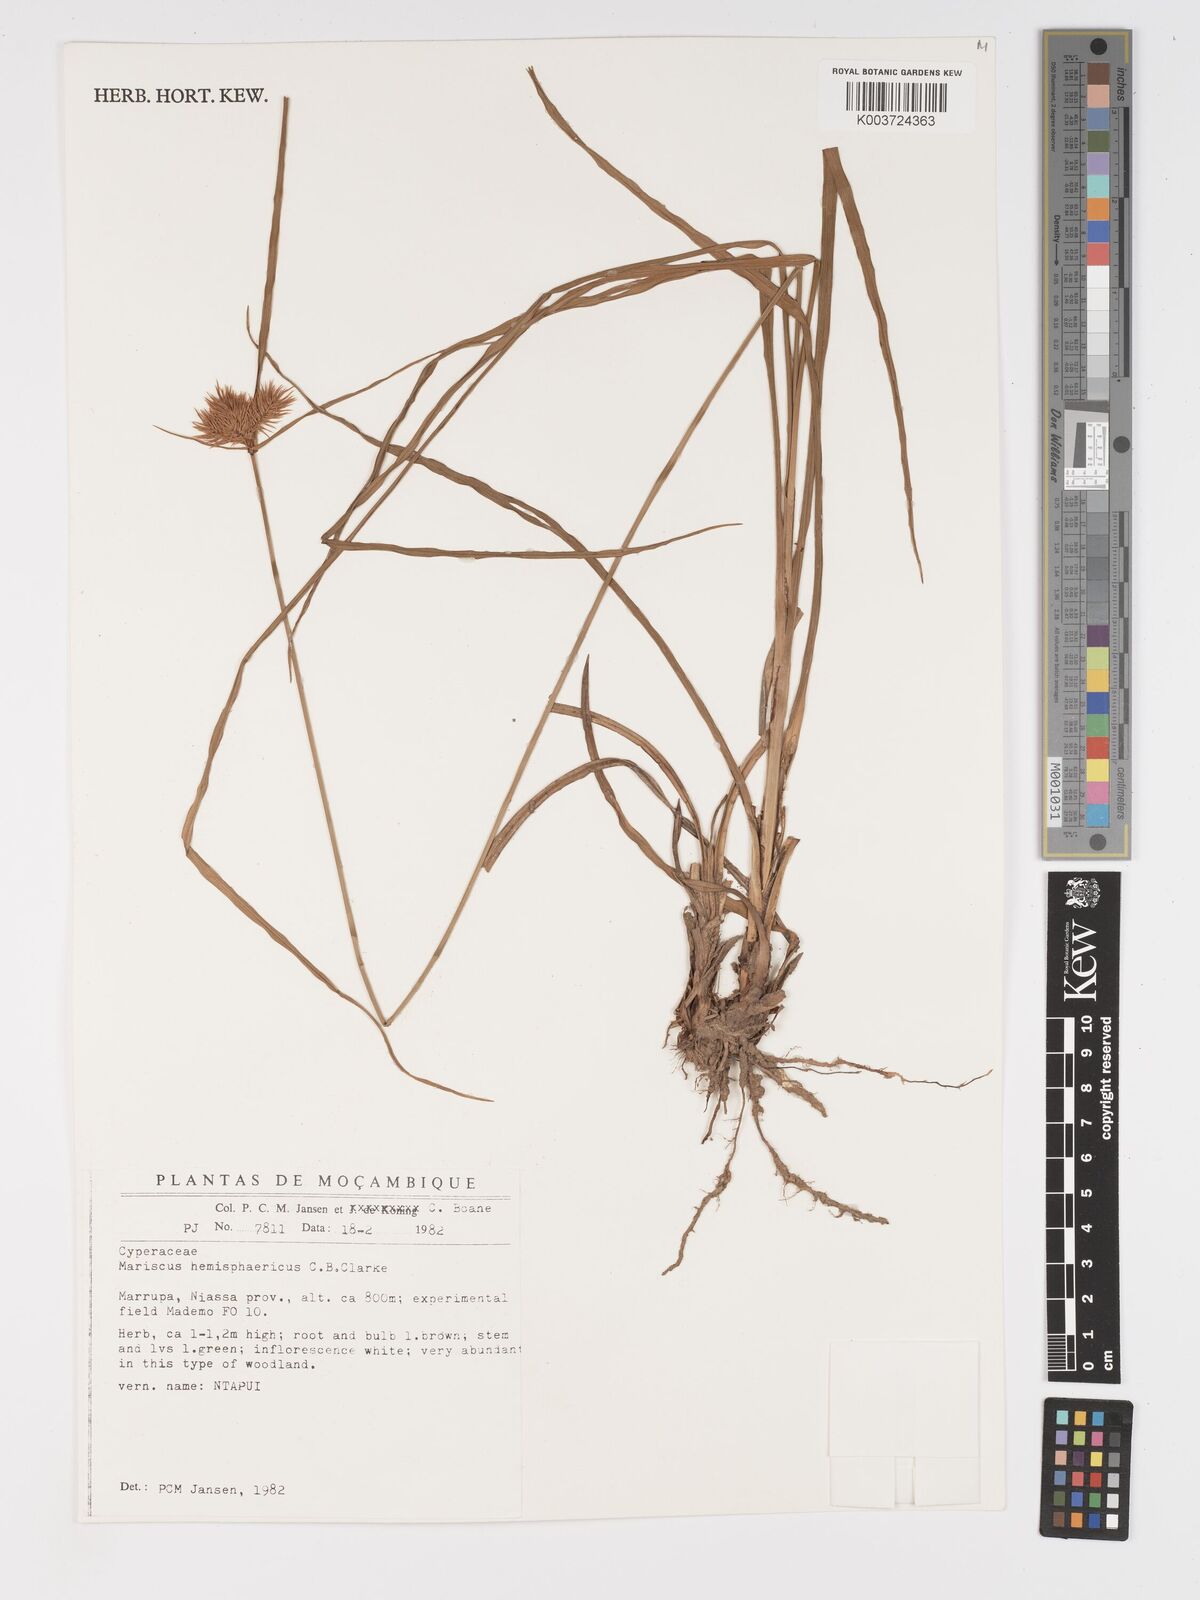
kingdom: Plantae
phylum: Tracheophyta
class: Liliopsida
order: Poales
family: Cyperaceae
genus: Cyperus
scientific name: Cyperus hemisphaericus
